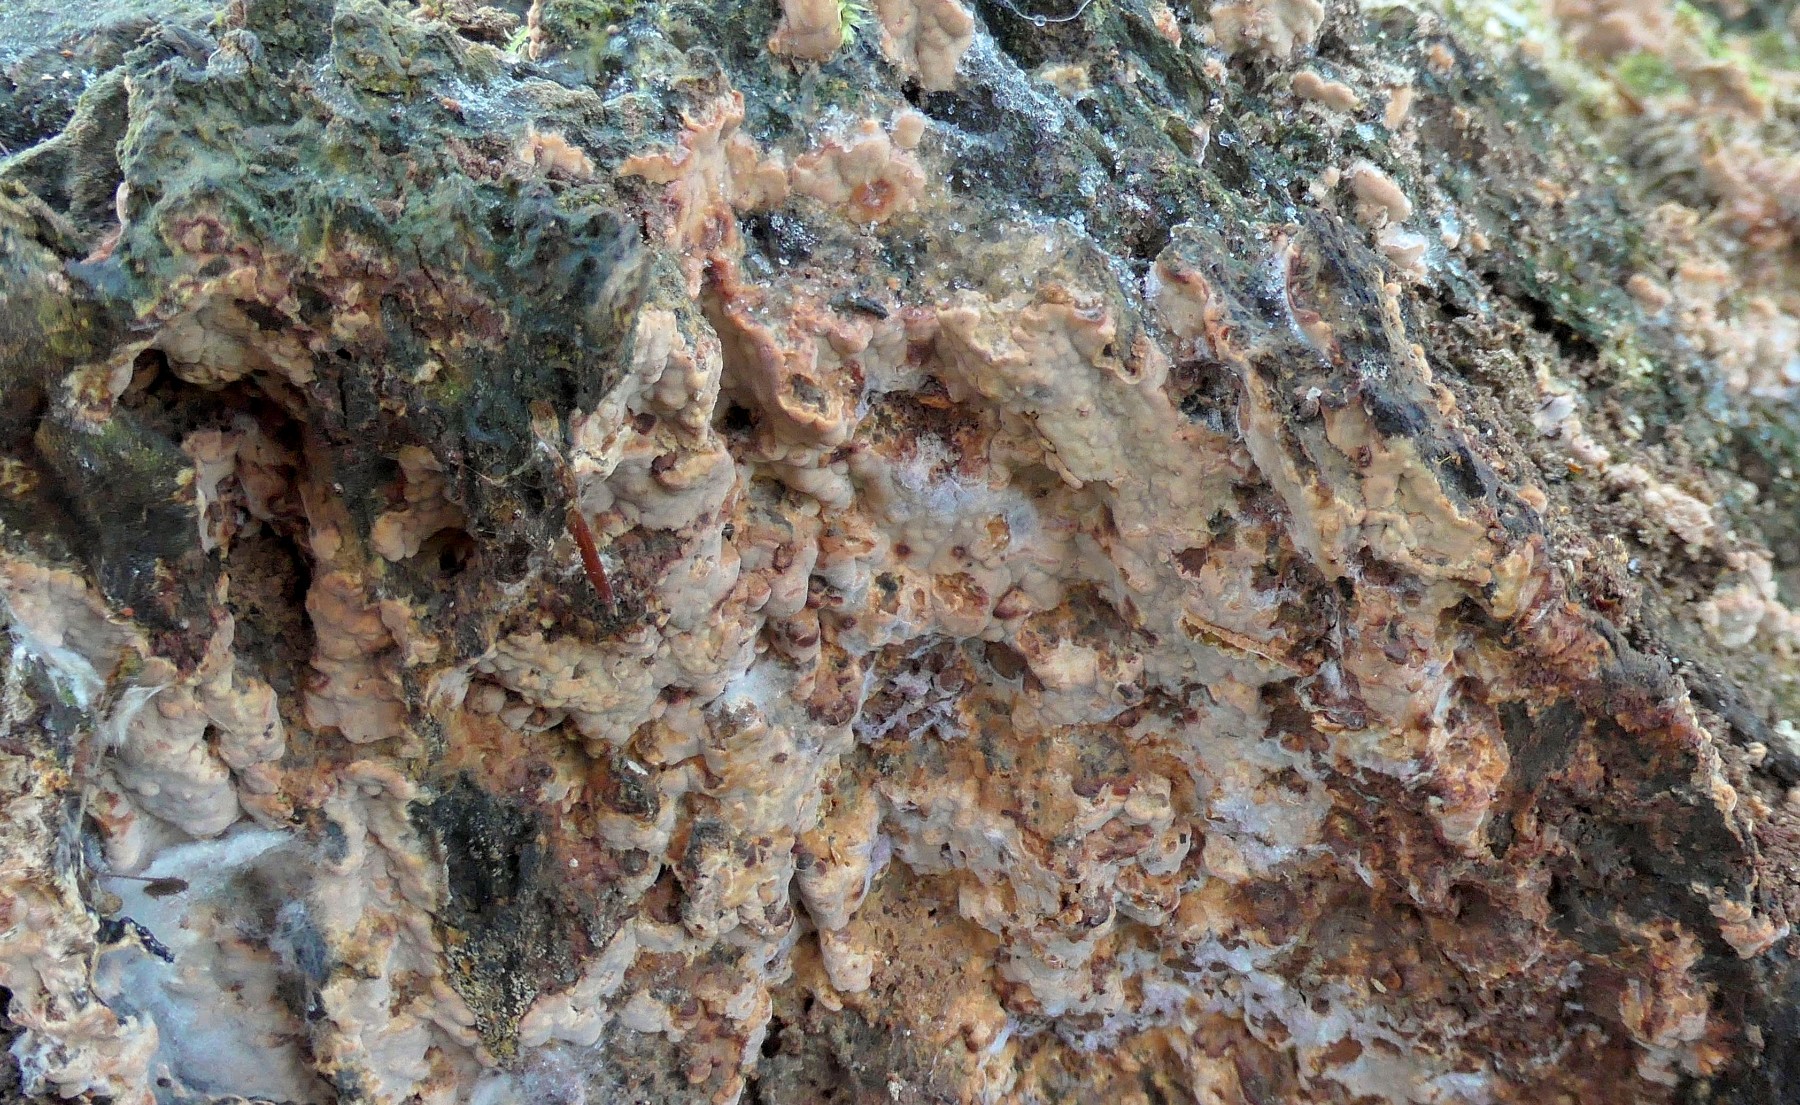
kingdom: Fungi
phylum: Basidiomycota
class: Agaricomycetes
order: Russulales
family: Peniophoraceae
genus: Gloiothele
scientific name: Gloiothele lactescens
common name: bitter olieskind
